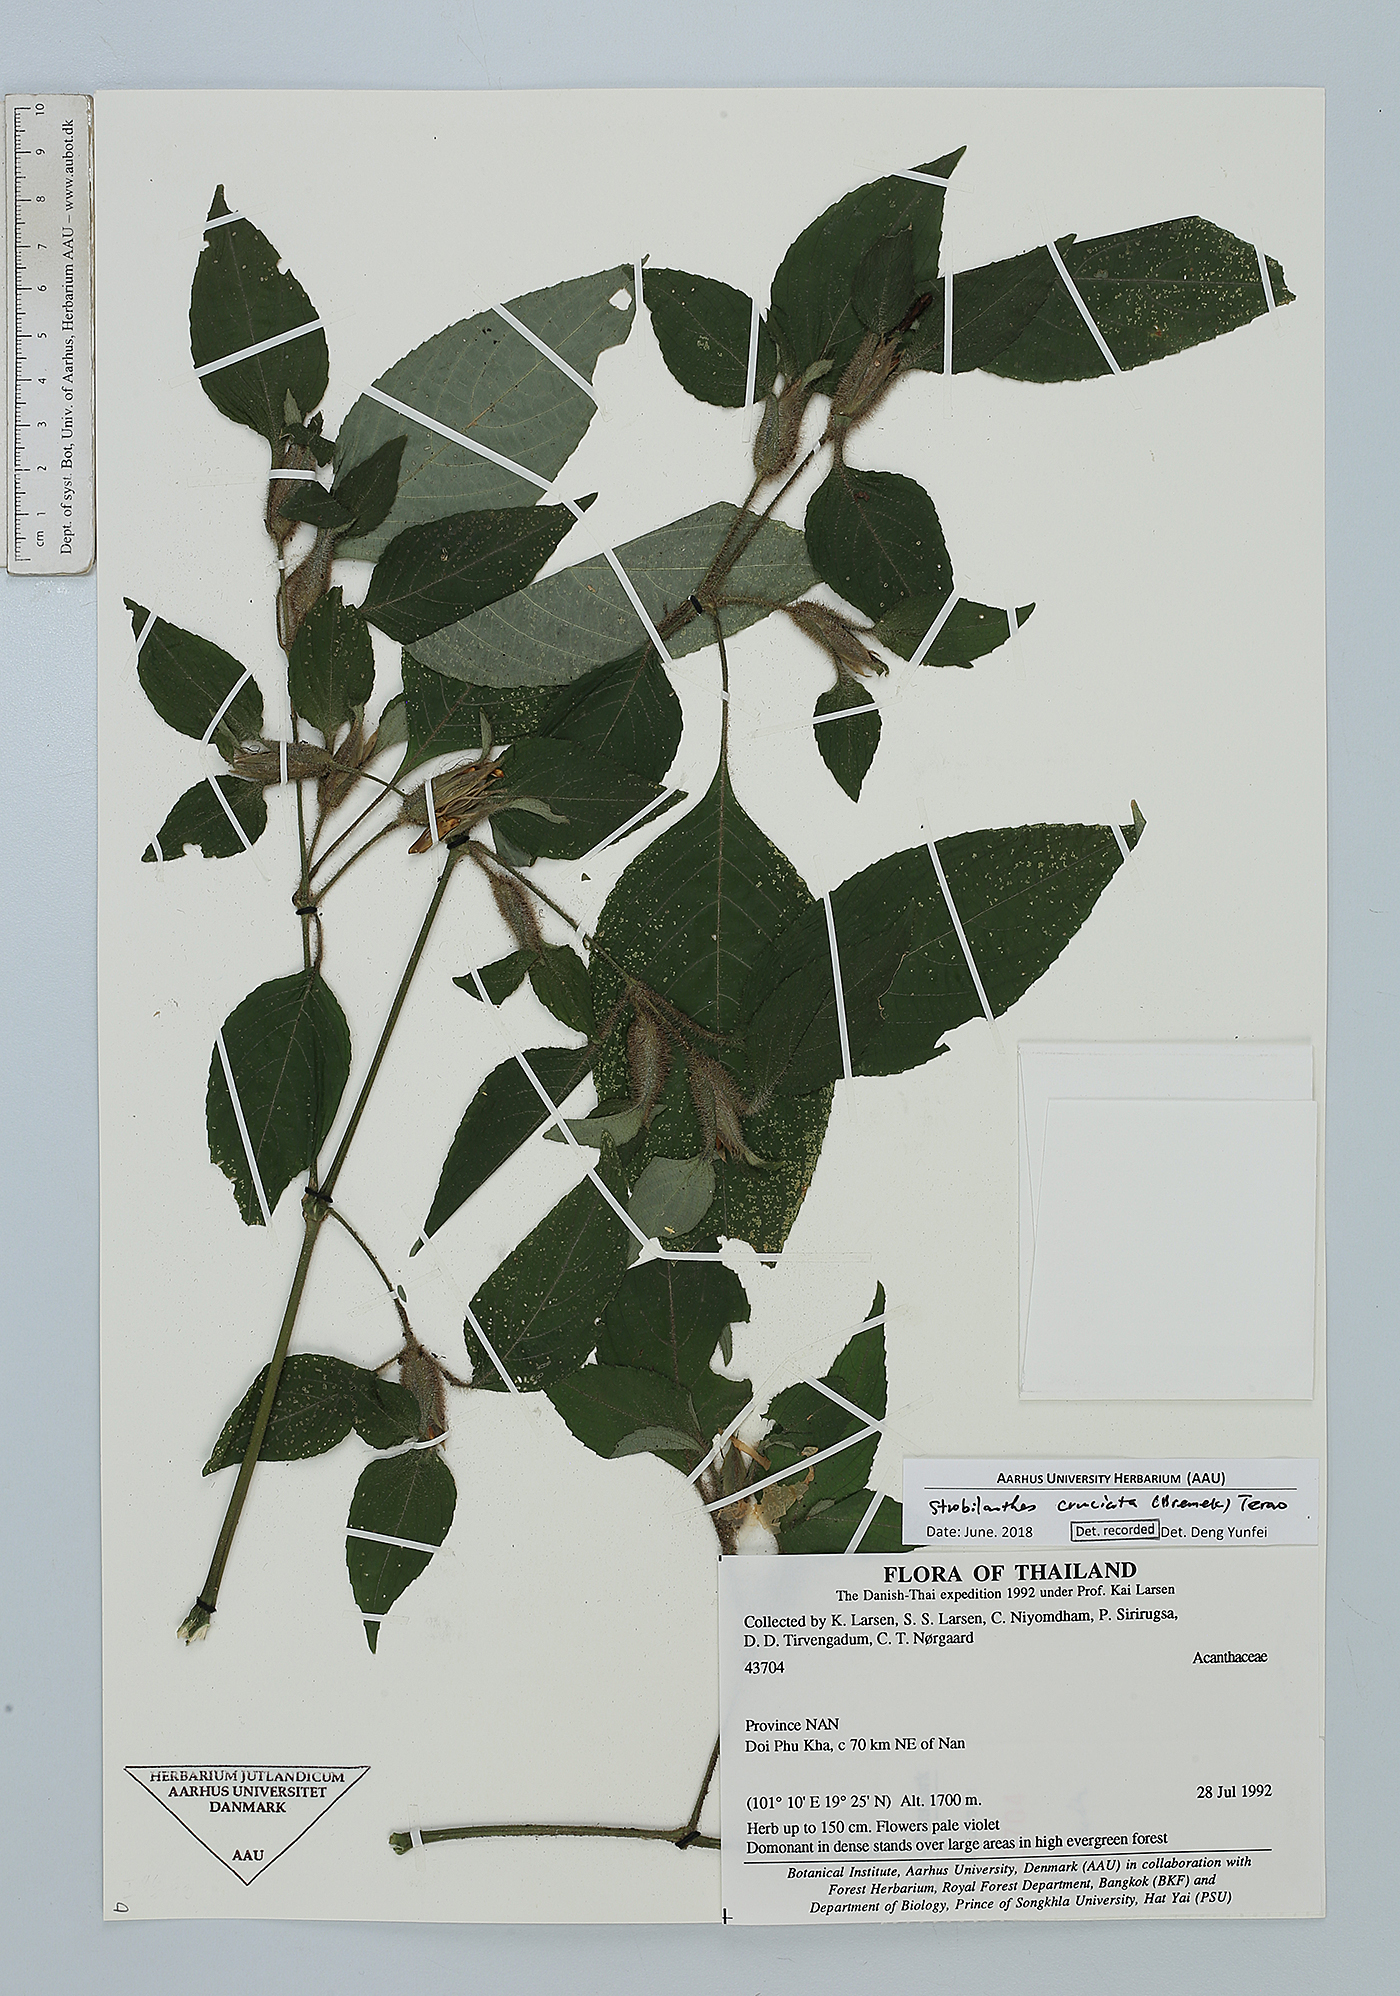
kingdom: Plantae
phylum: Tracheophyta
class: Magnoliopsida
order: Lamiales
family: Acanthaceae
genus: Strobilanthes
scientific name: Strobilanthes cruciata
